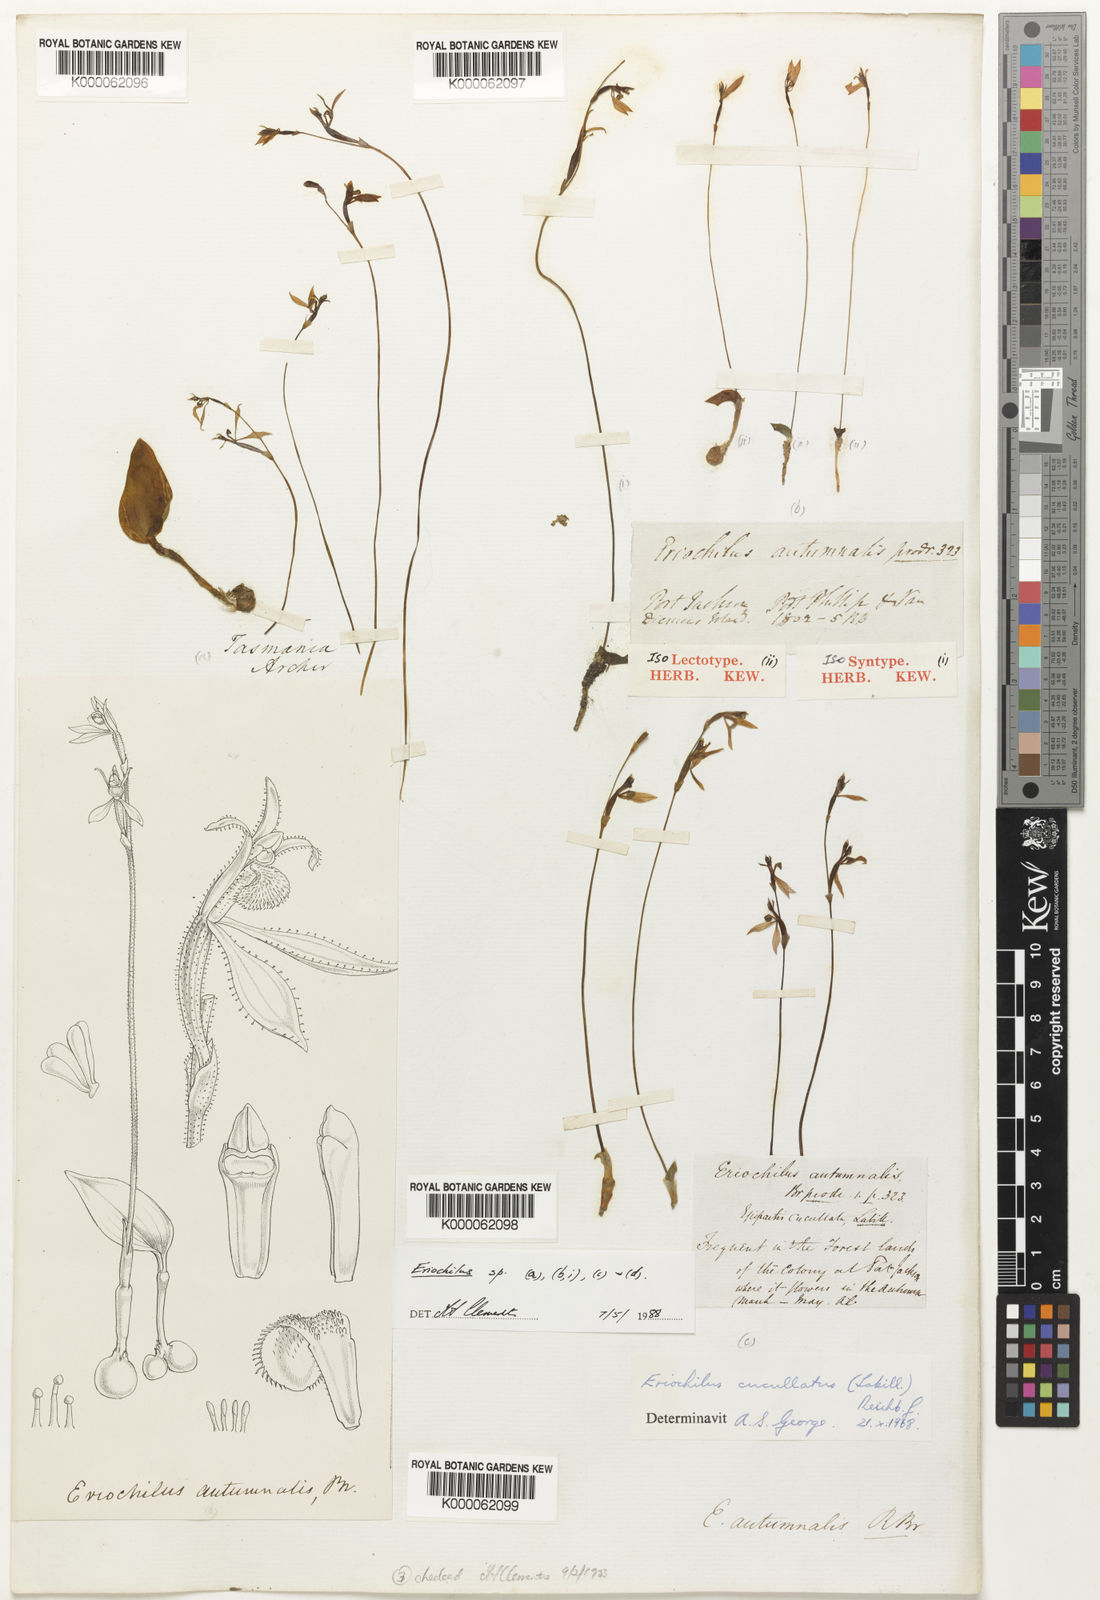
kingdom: Plantae
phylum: Tracheophyta
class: Liliopsida
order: Asparagales
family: Orchidaceae
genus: Eriochilus
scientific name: Eriochilus cucullatus
